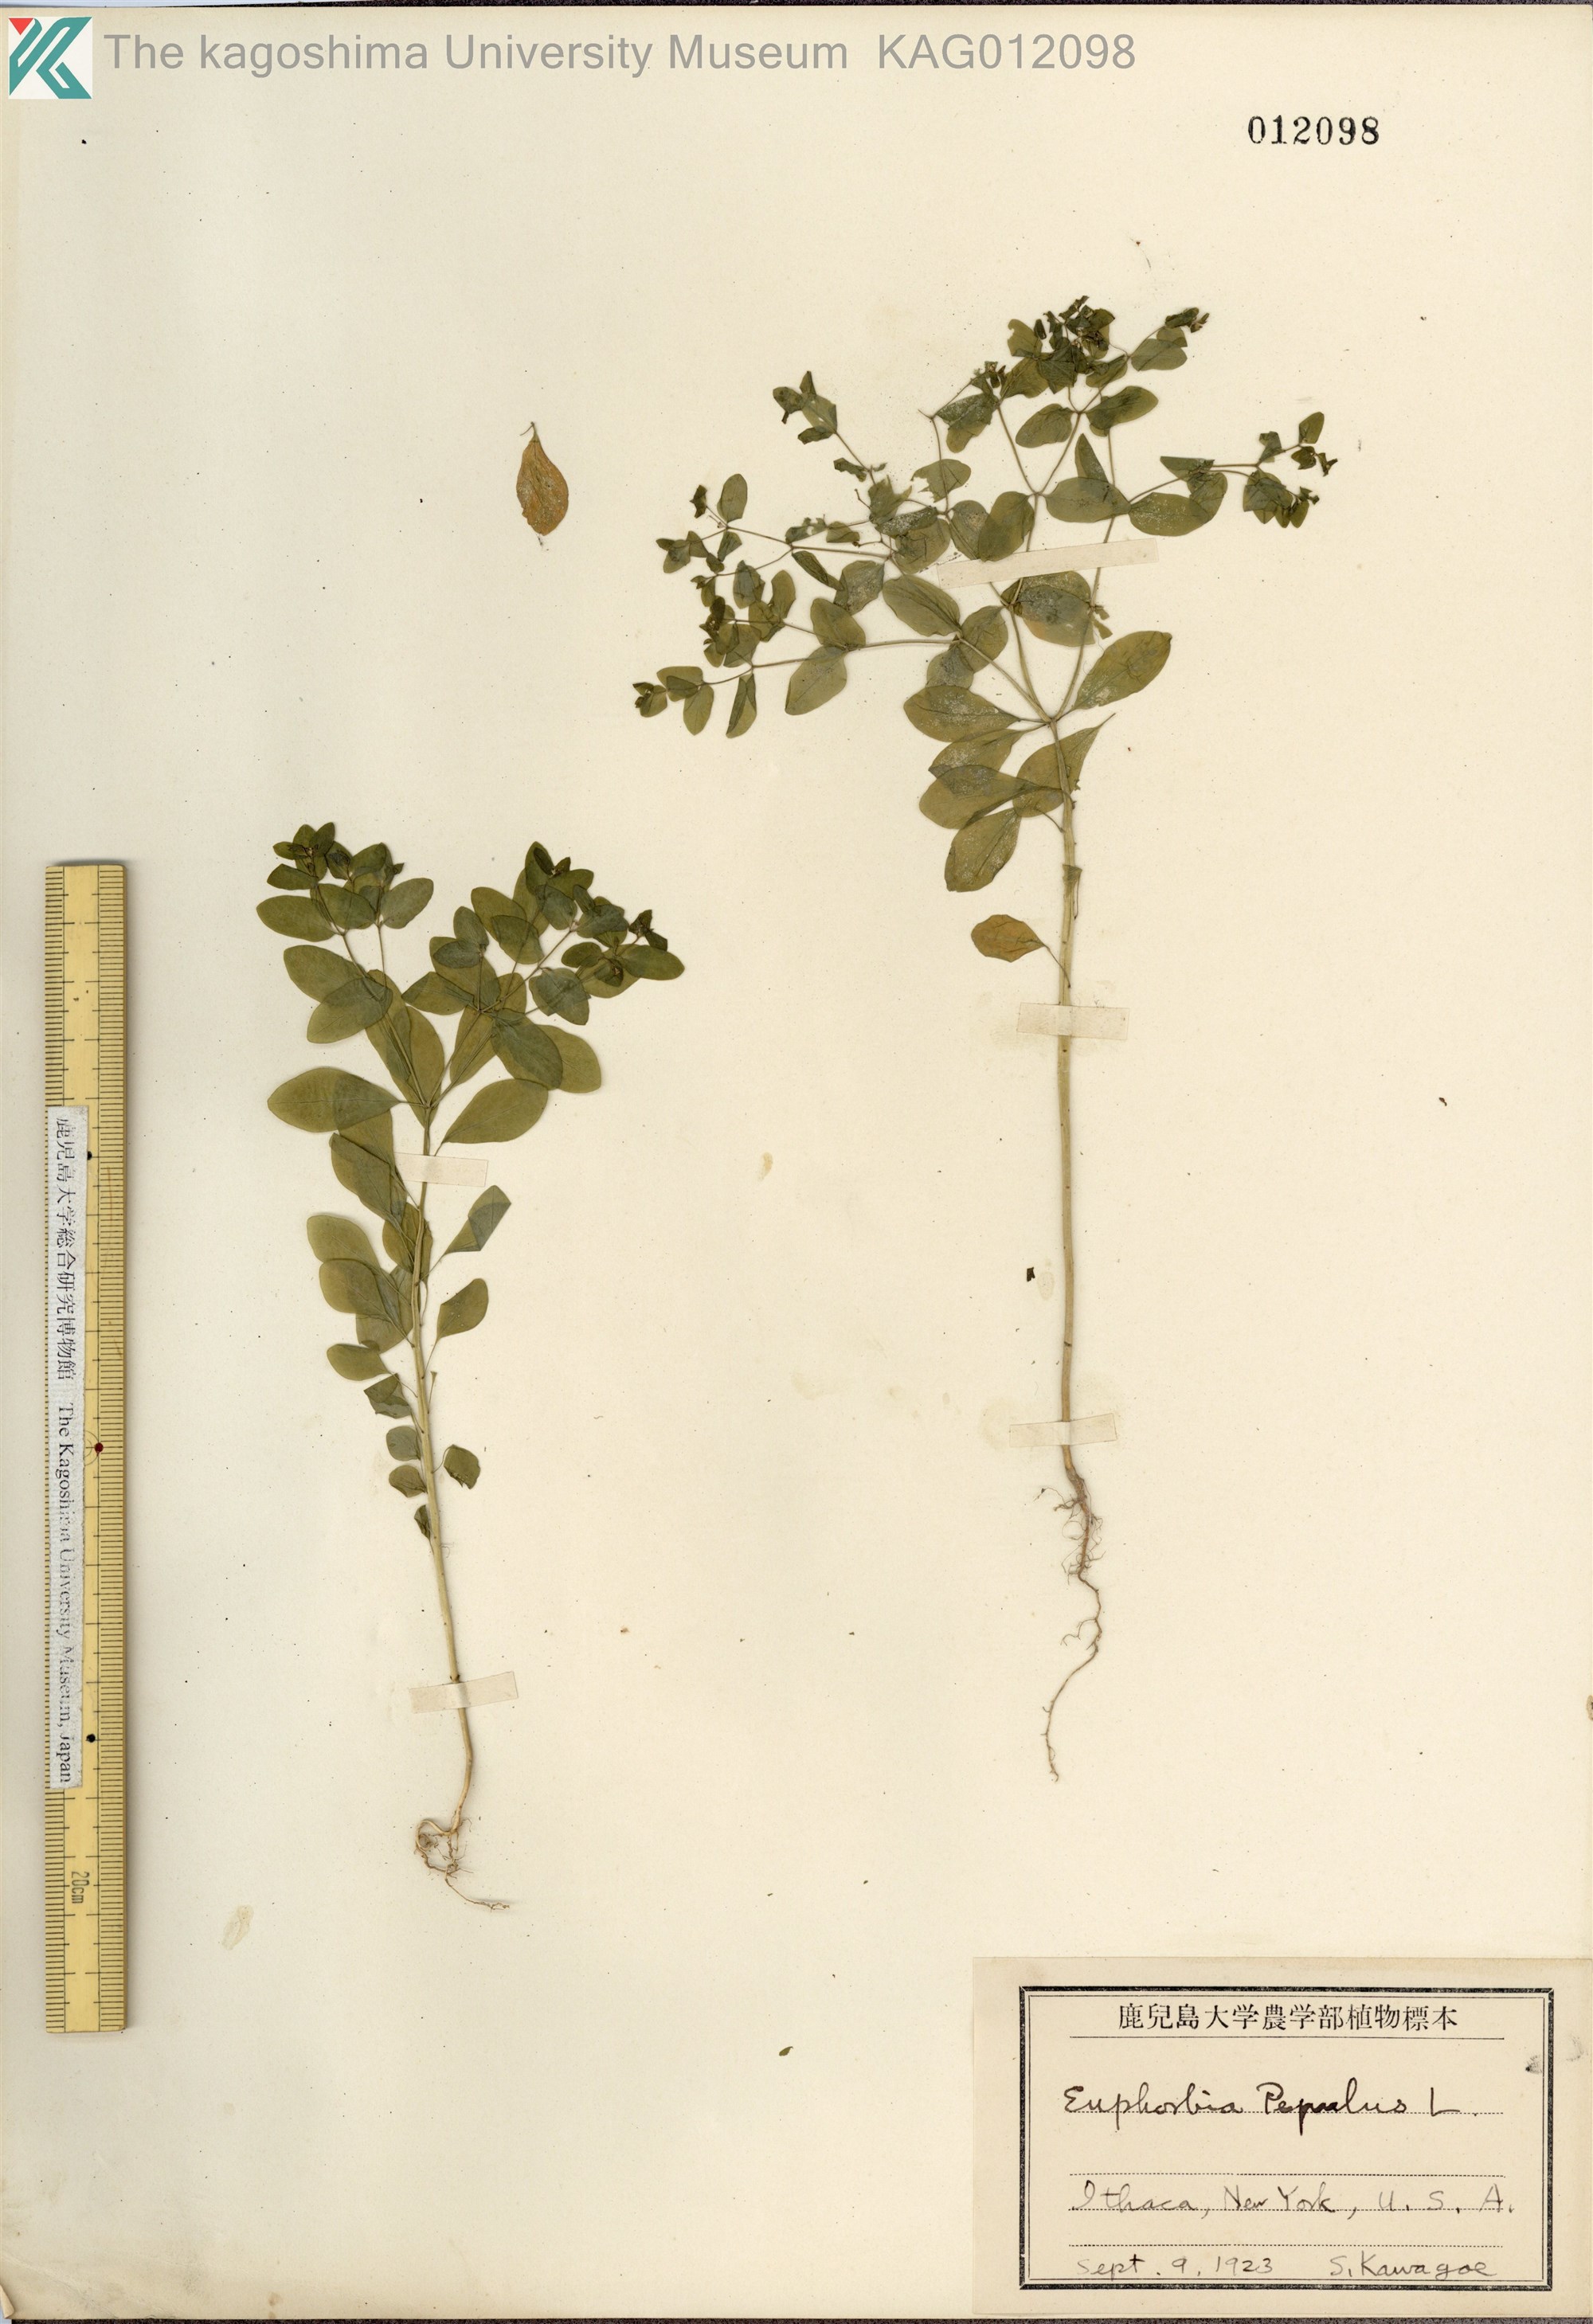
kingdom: Plantae
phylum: Tracheophyta
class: Magnoliopsida
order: Malpighiales
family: Euphorbiaceae
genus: Euphorbia
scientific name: Euphorbia peplus
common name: Petty spurge
